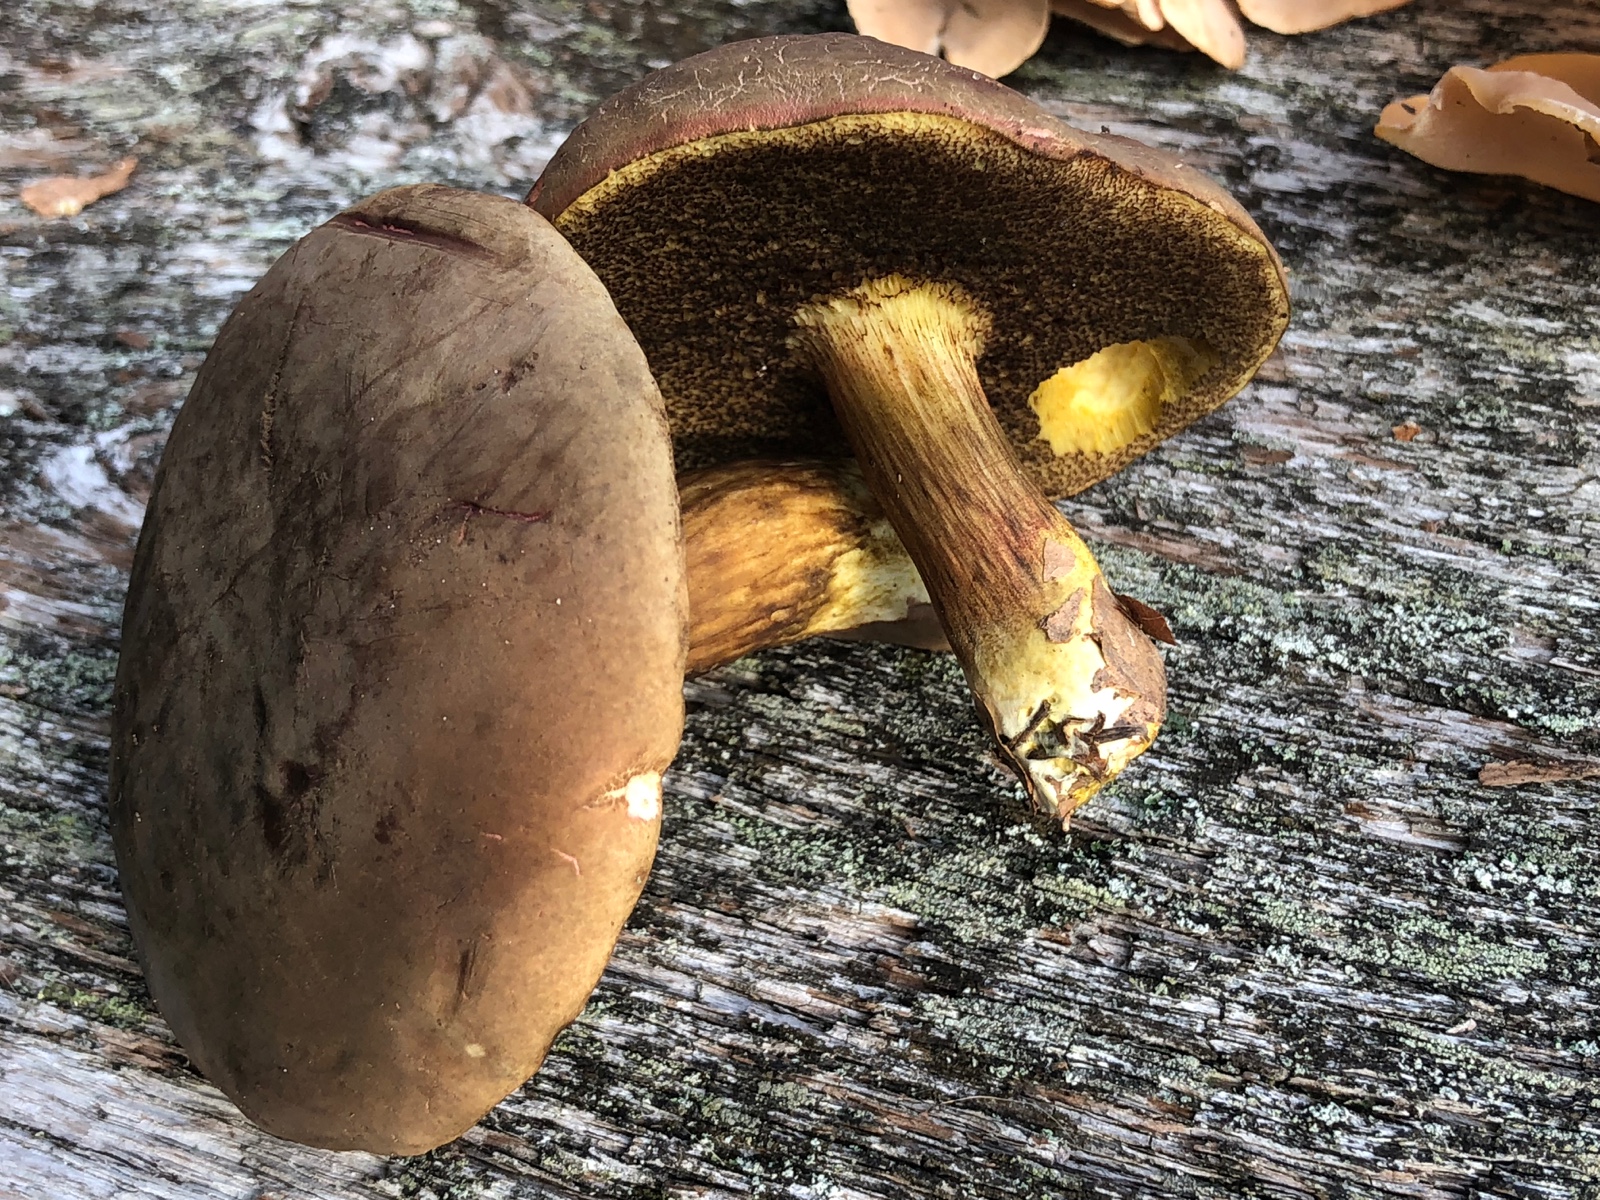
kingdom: Fungi
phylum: Basidiomycota
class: Agaricomycetes
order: Boletales
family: Boletaceae
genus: Xerocomellus
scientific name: Xerocomellus pruinatus
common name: dugget rørhat
